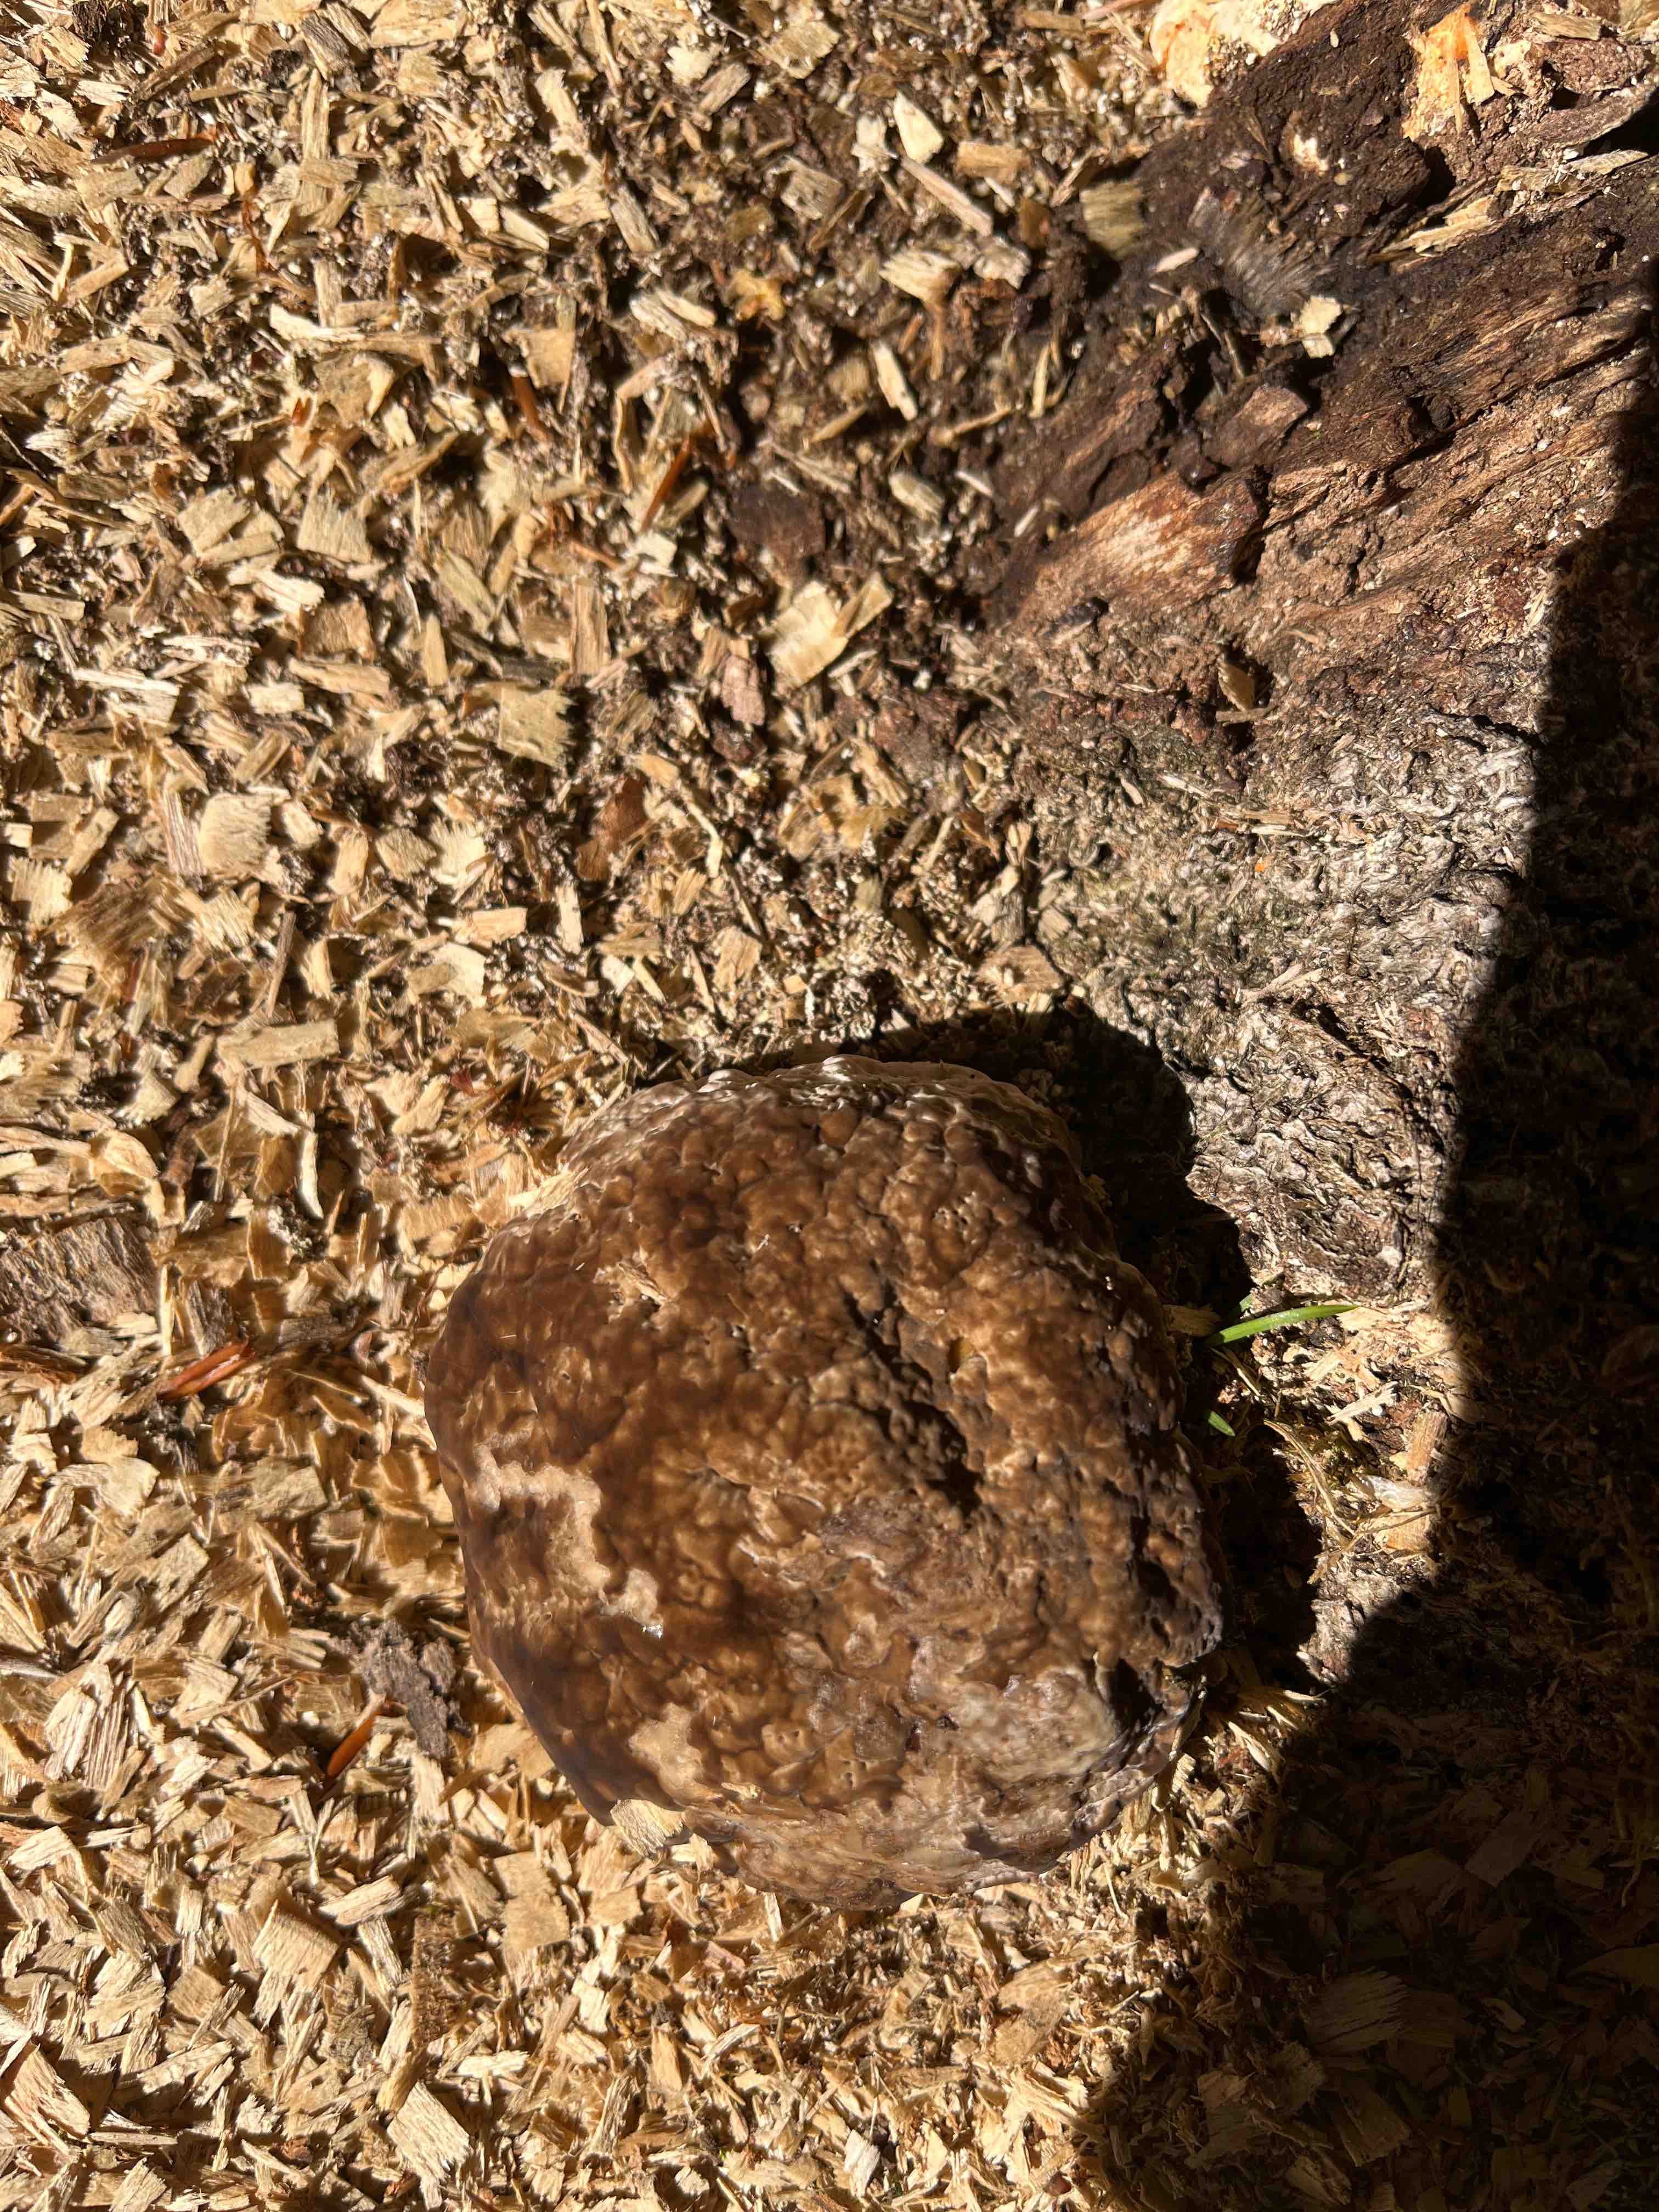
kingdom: Fungi
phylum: Basidiomycota
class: Agaricomycetes
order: Polyporales
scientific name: Polyporales
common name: poresvampordenen
